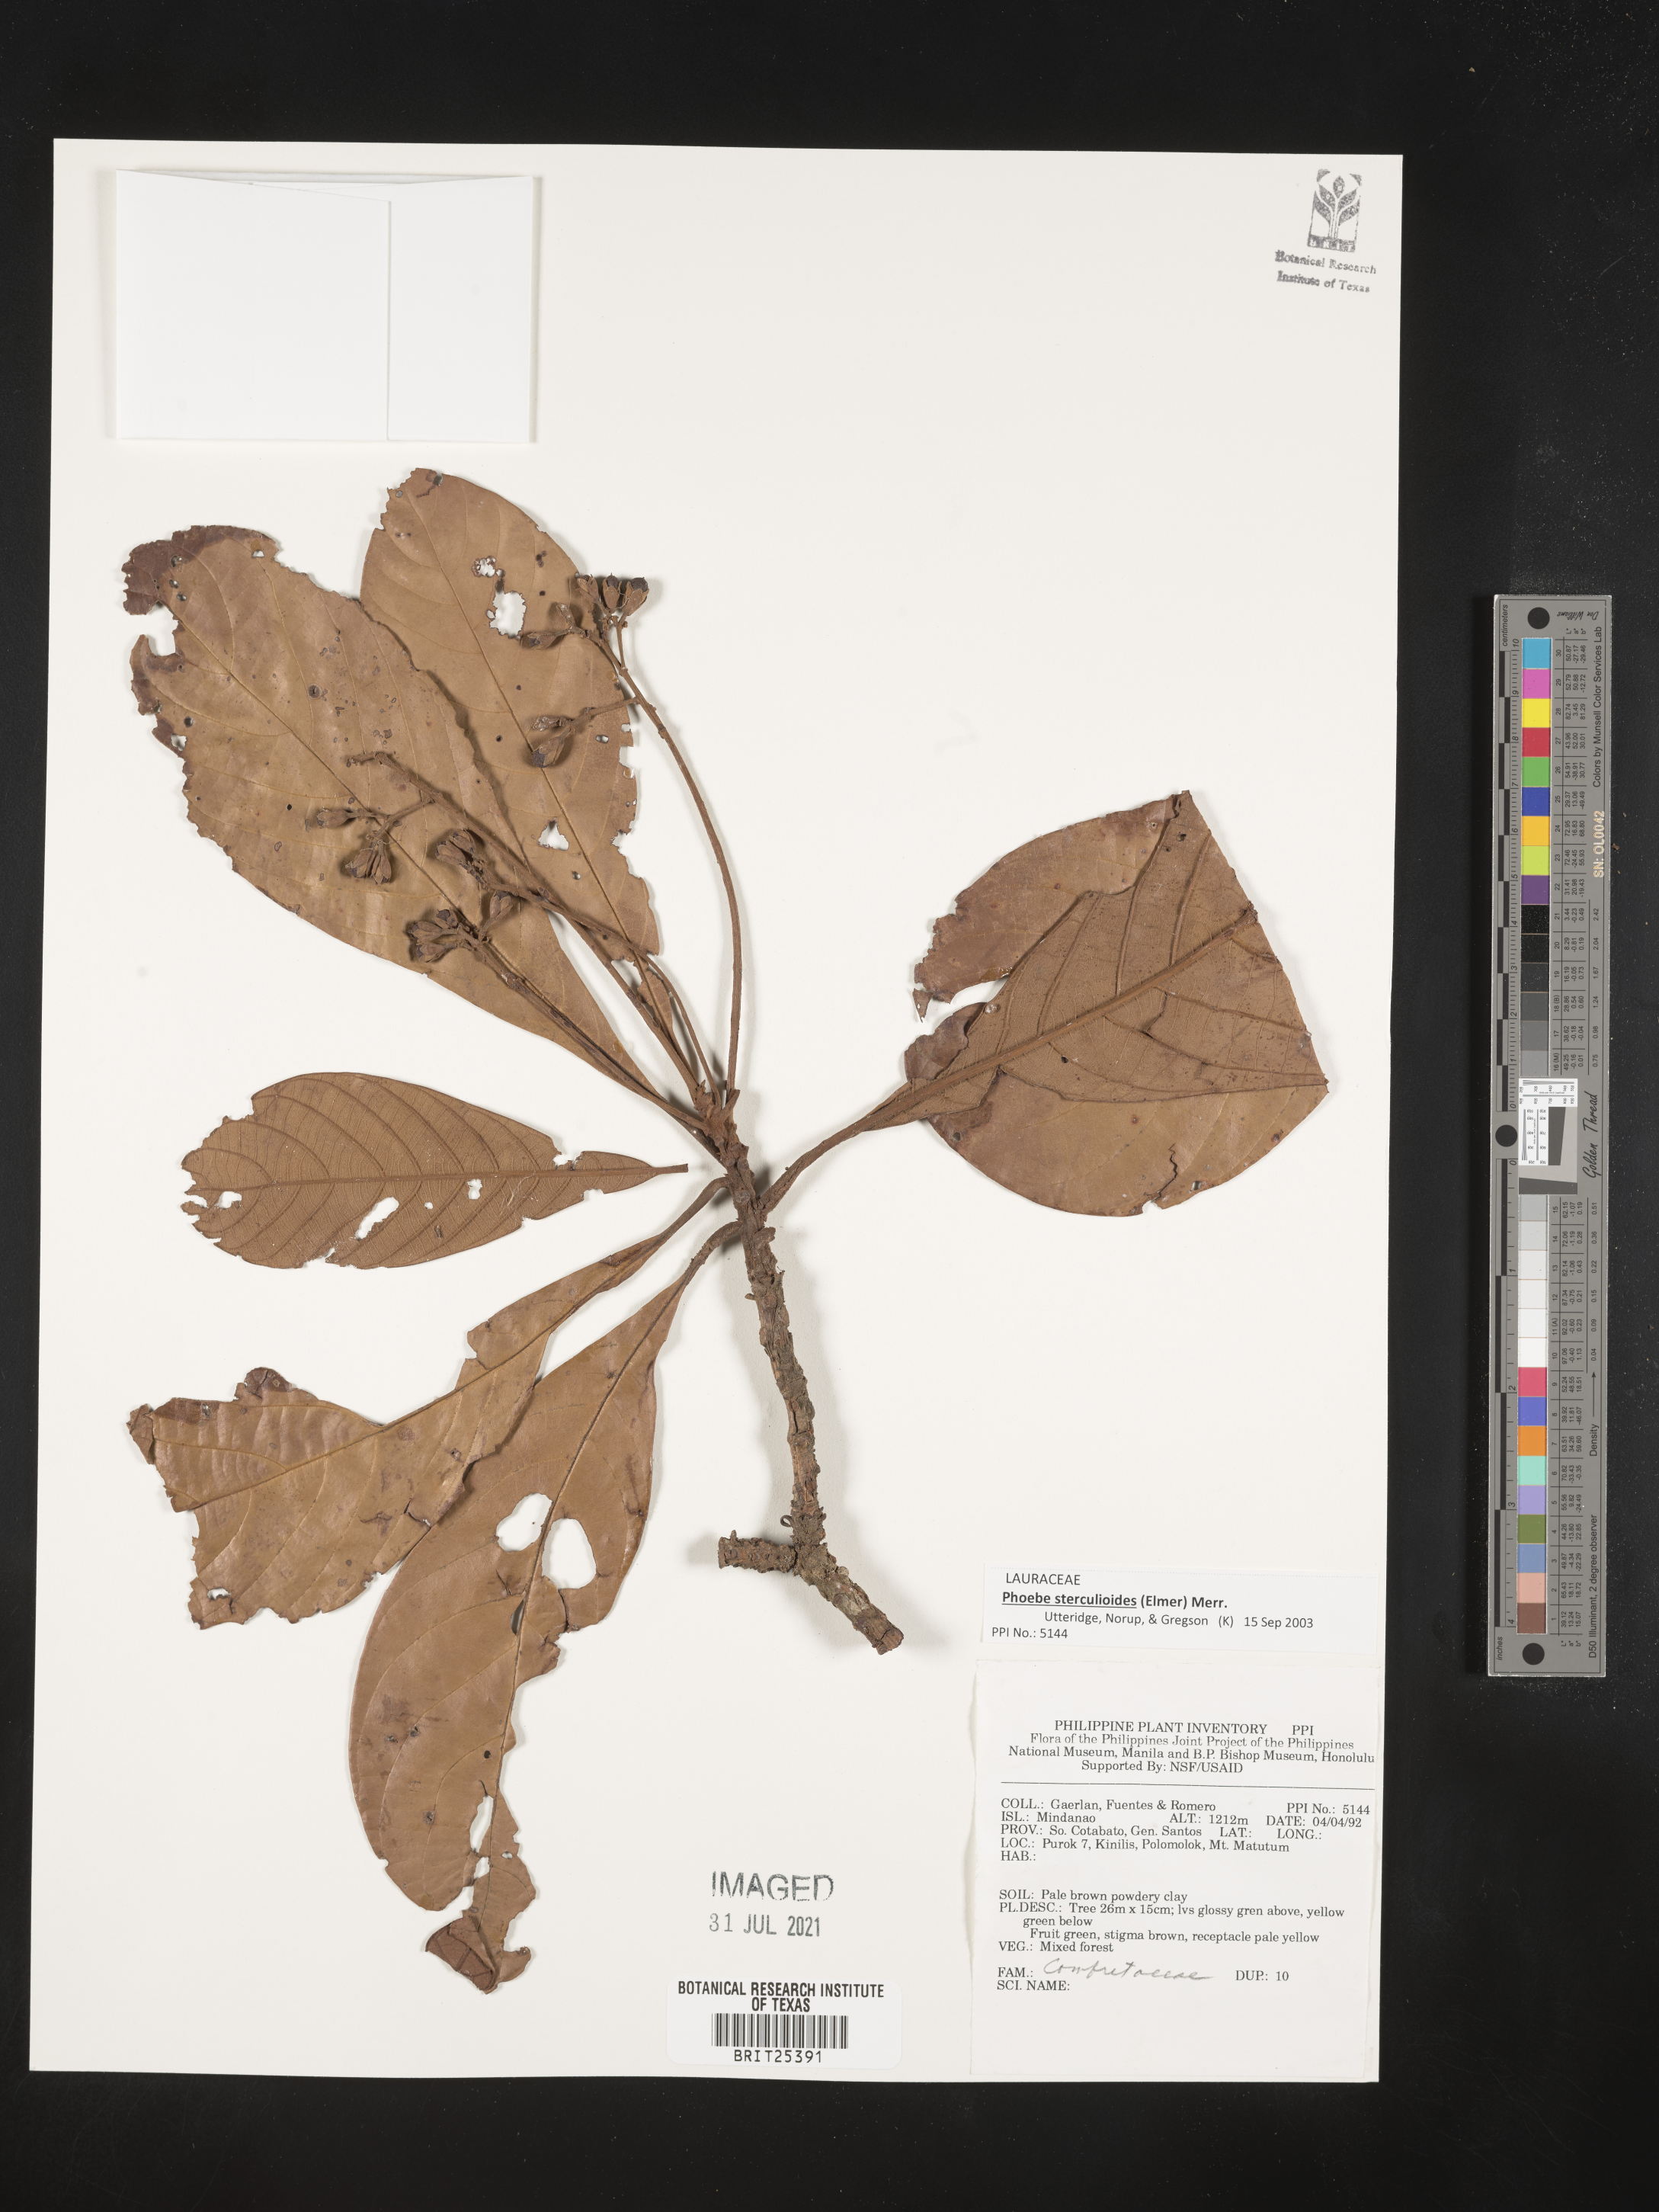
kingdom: Plantae
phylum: Tracheophyta
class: Magnoliopsida
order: Myrtales
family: Combretaceae
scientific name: Combretaceae
